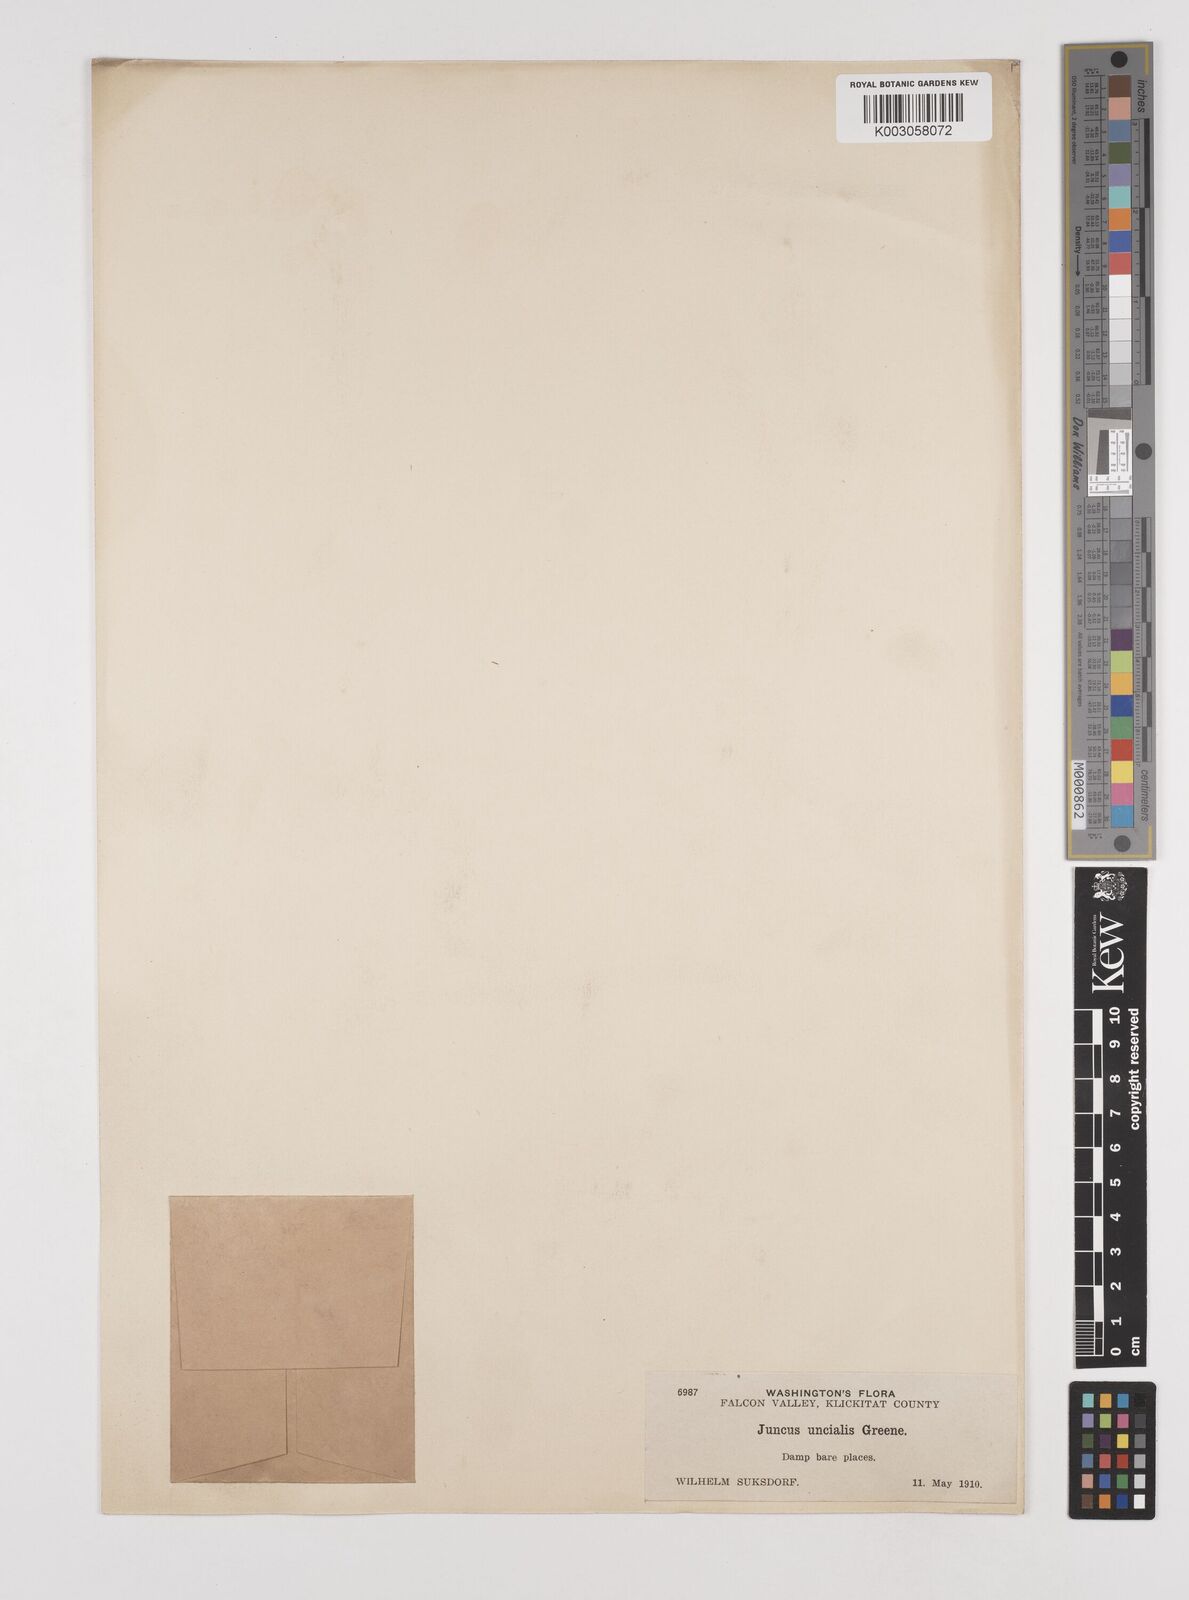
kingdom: Plantae
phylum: Tracheophyta
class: Liliopsida
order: Poales
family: Juncaceae
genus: Juncus
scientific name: Juncus uncialis
